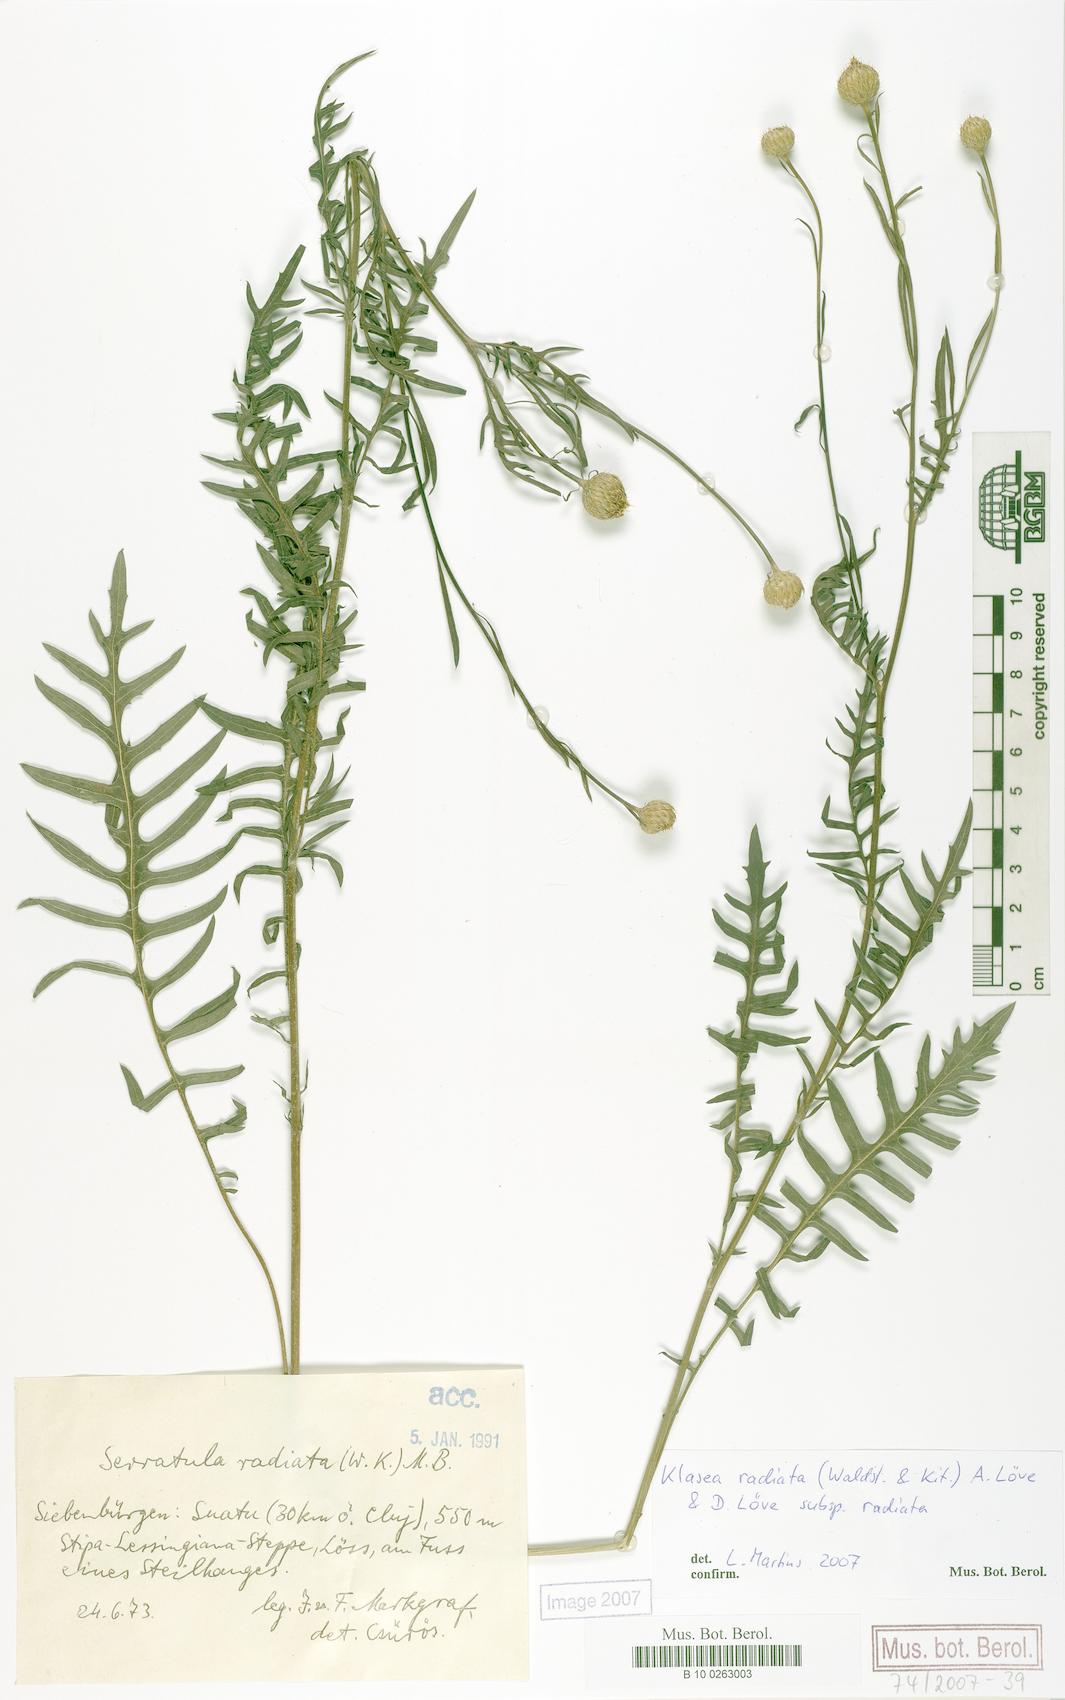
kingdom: Plantae
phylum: Tracheophyta
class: Magnoliopsida
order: Asterales
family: Asteraceae
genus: Klasea
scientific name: Klasea radiata
